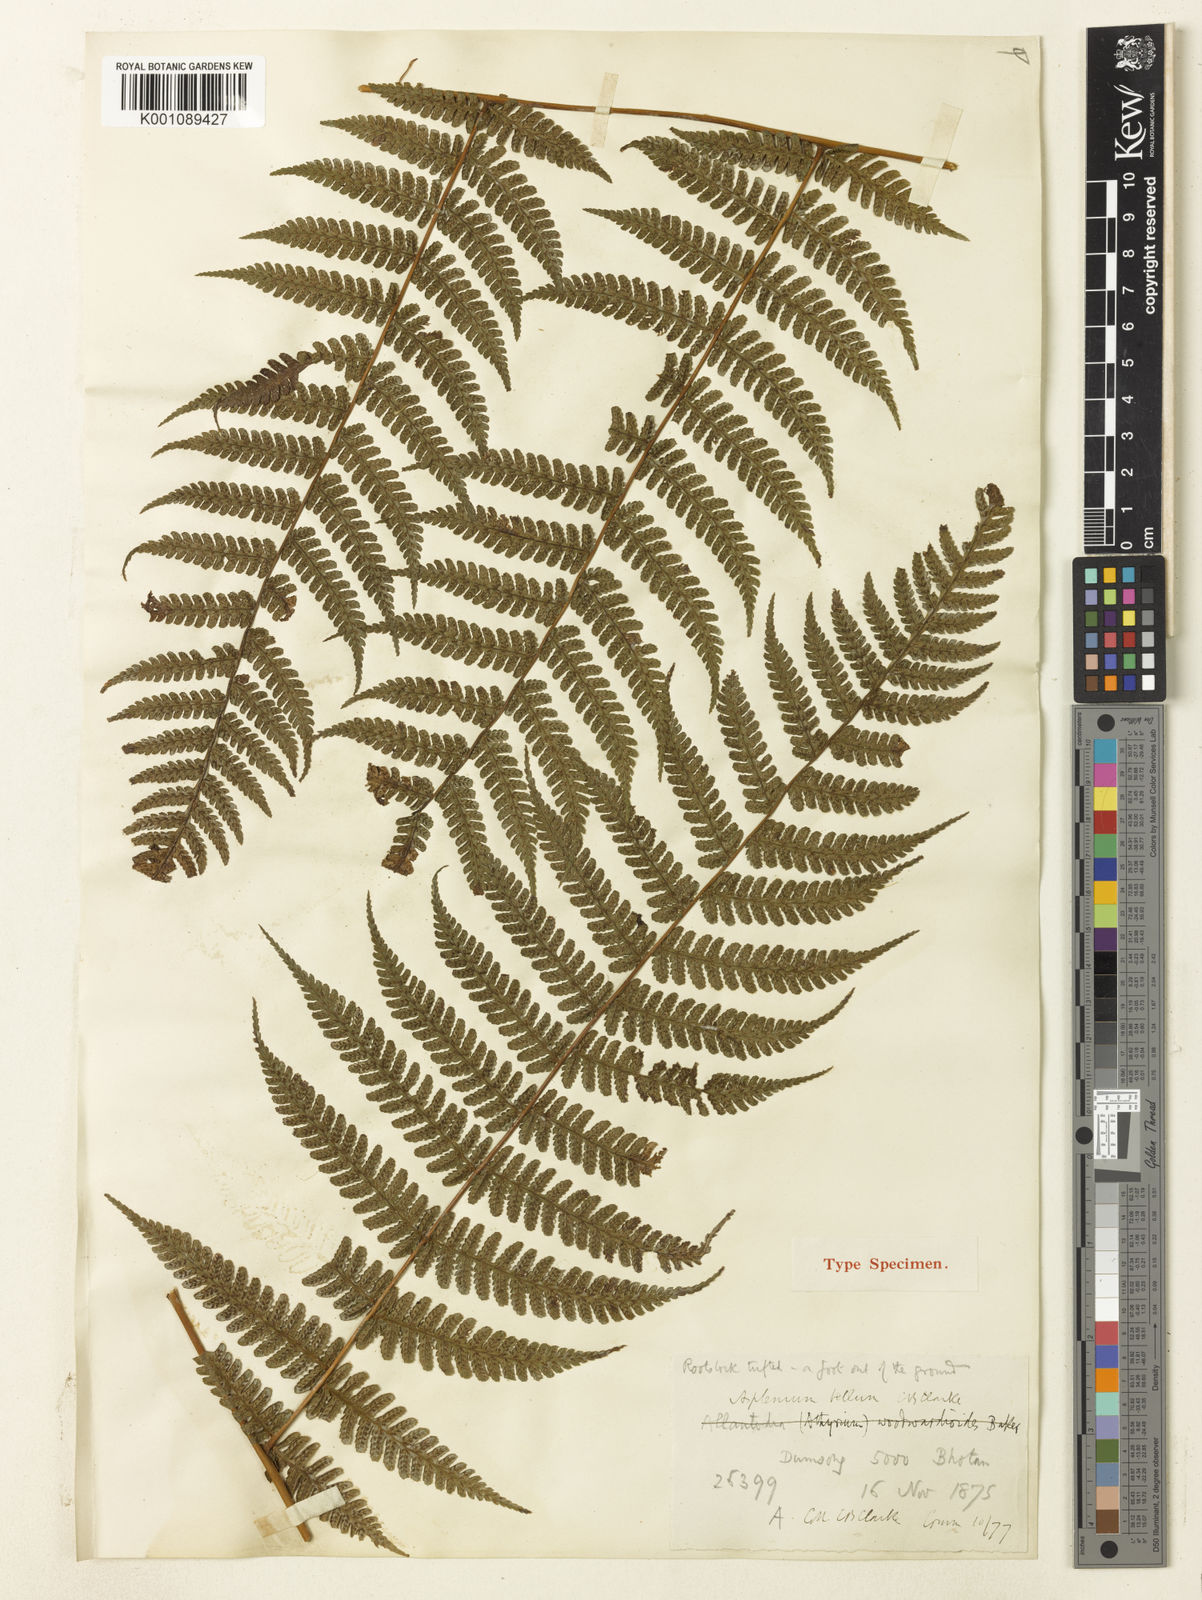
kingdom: Plantae
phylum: Tracheophyta
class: Polypodiopsida
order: Polypodiales
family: Athyriaceae
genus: Diplazium
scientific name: Diplazium bellum
